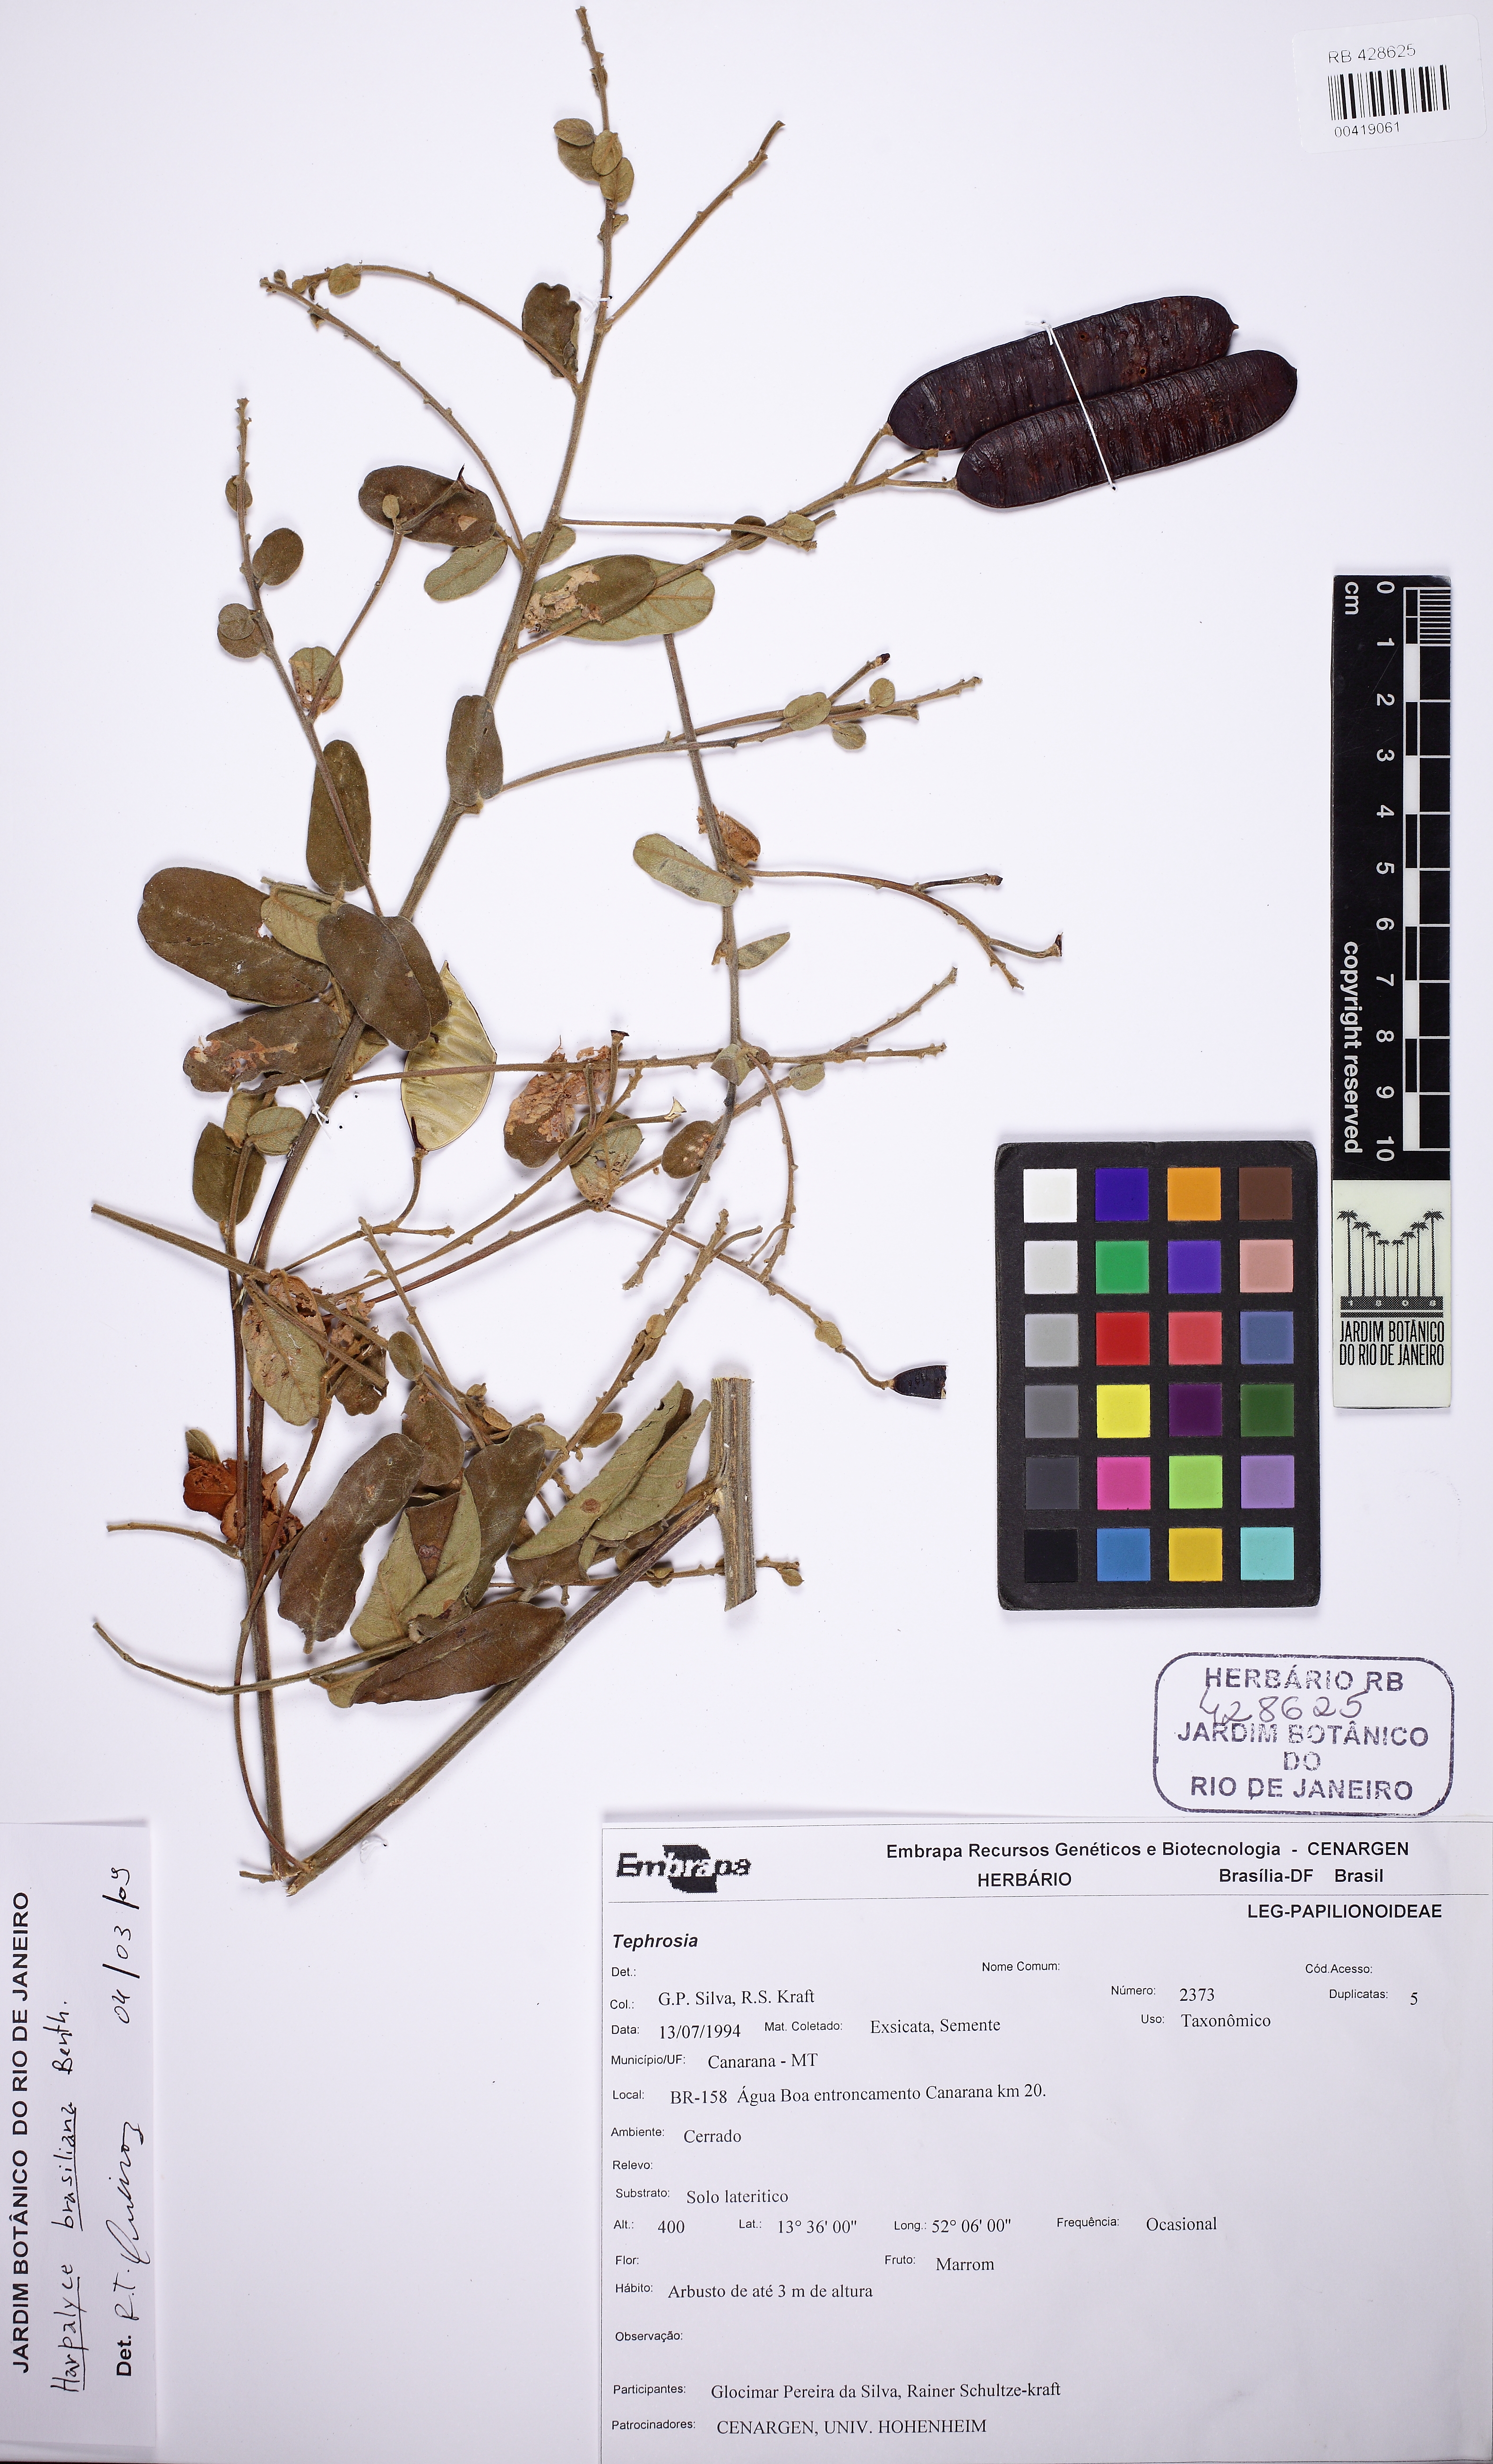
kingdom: Plantae
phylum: Tracheophyta
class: Magnoliopsida
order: Fabales
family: Fabaceae
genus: Harpalyce
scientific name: Harpalyce brasiliana
